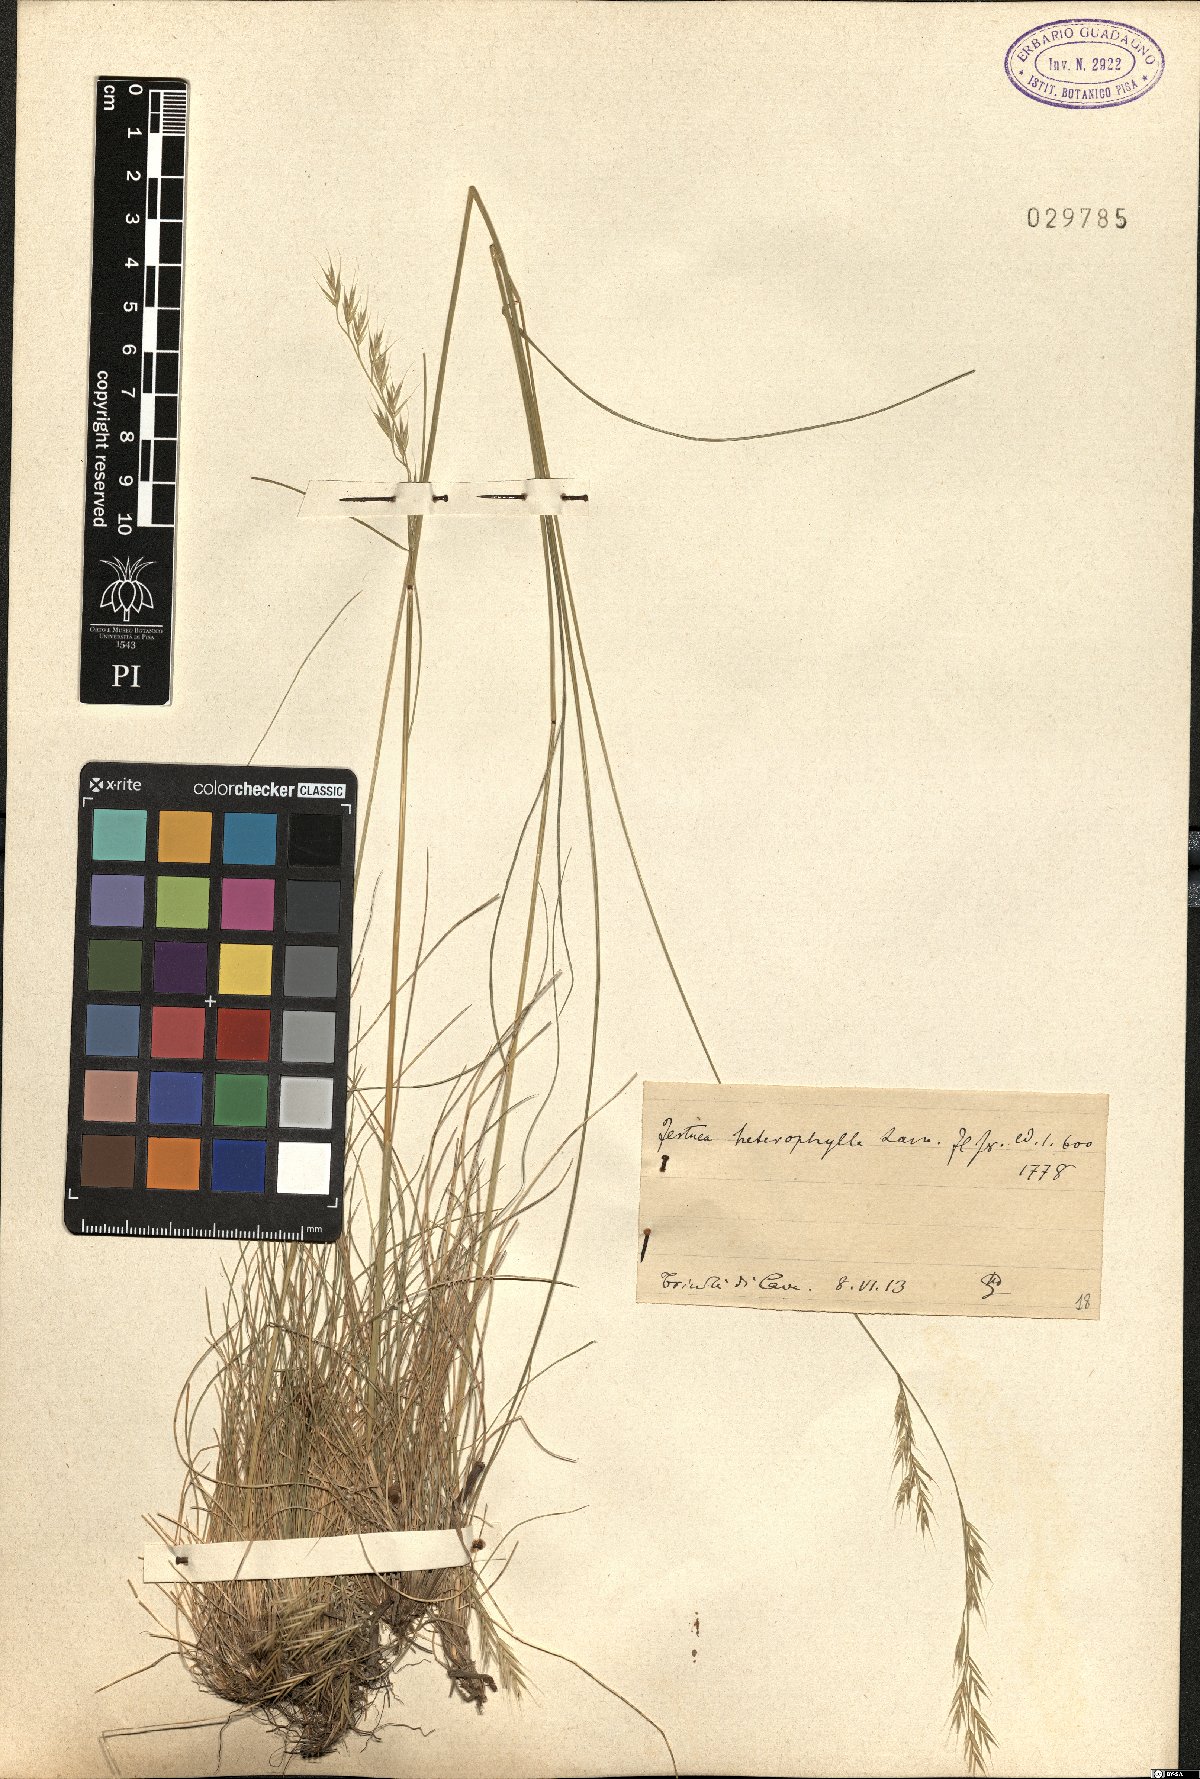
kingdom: Plantae
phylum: Tracheophyta
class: Liliopsida
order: Poales
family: Poaceae
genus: Festuca
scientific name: Festuca heterophylla
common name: Various-leaved fescue
